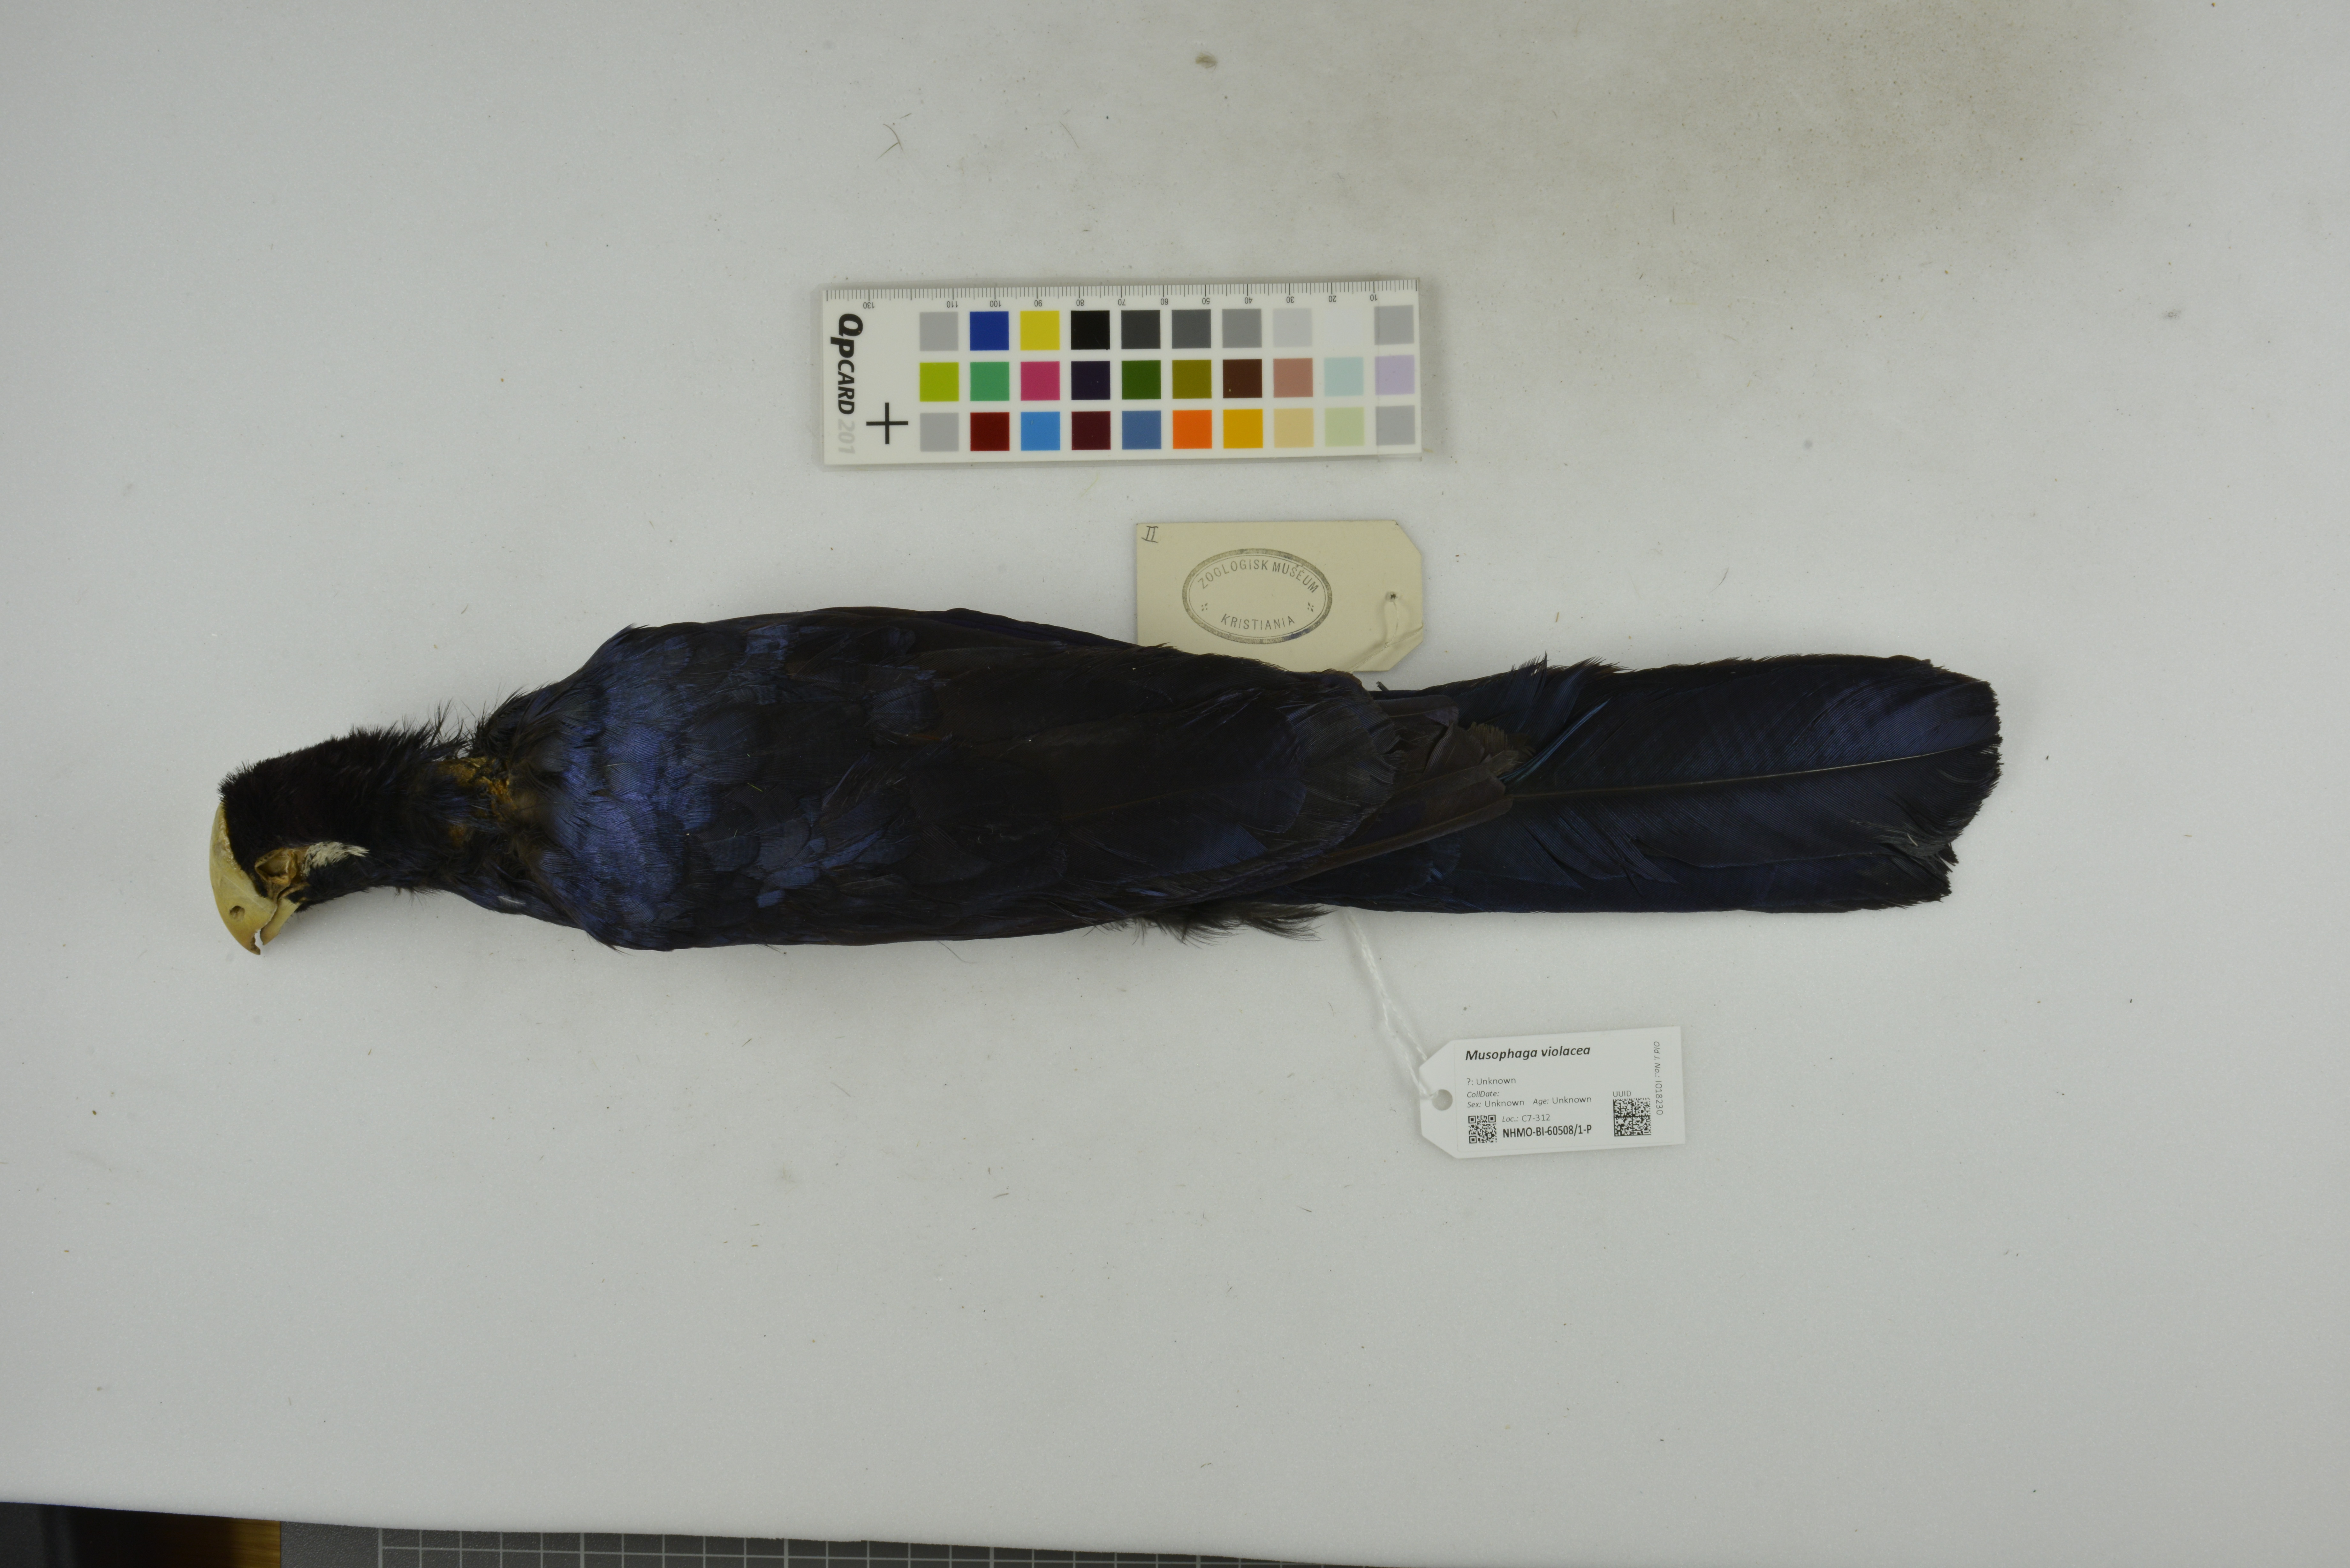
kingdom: Animalia
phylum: Chordata
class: Aves
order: Musophagiformes
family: Musophagidae
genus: Musophaga
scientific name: Musophaga violacea
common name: Violet turaco
